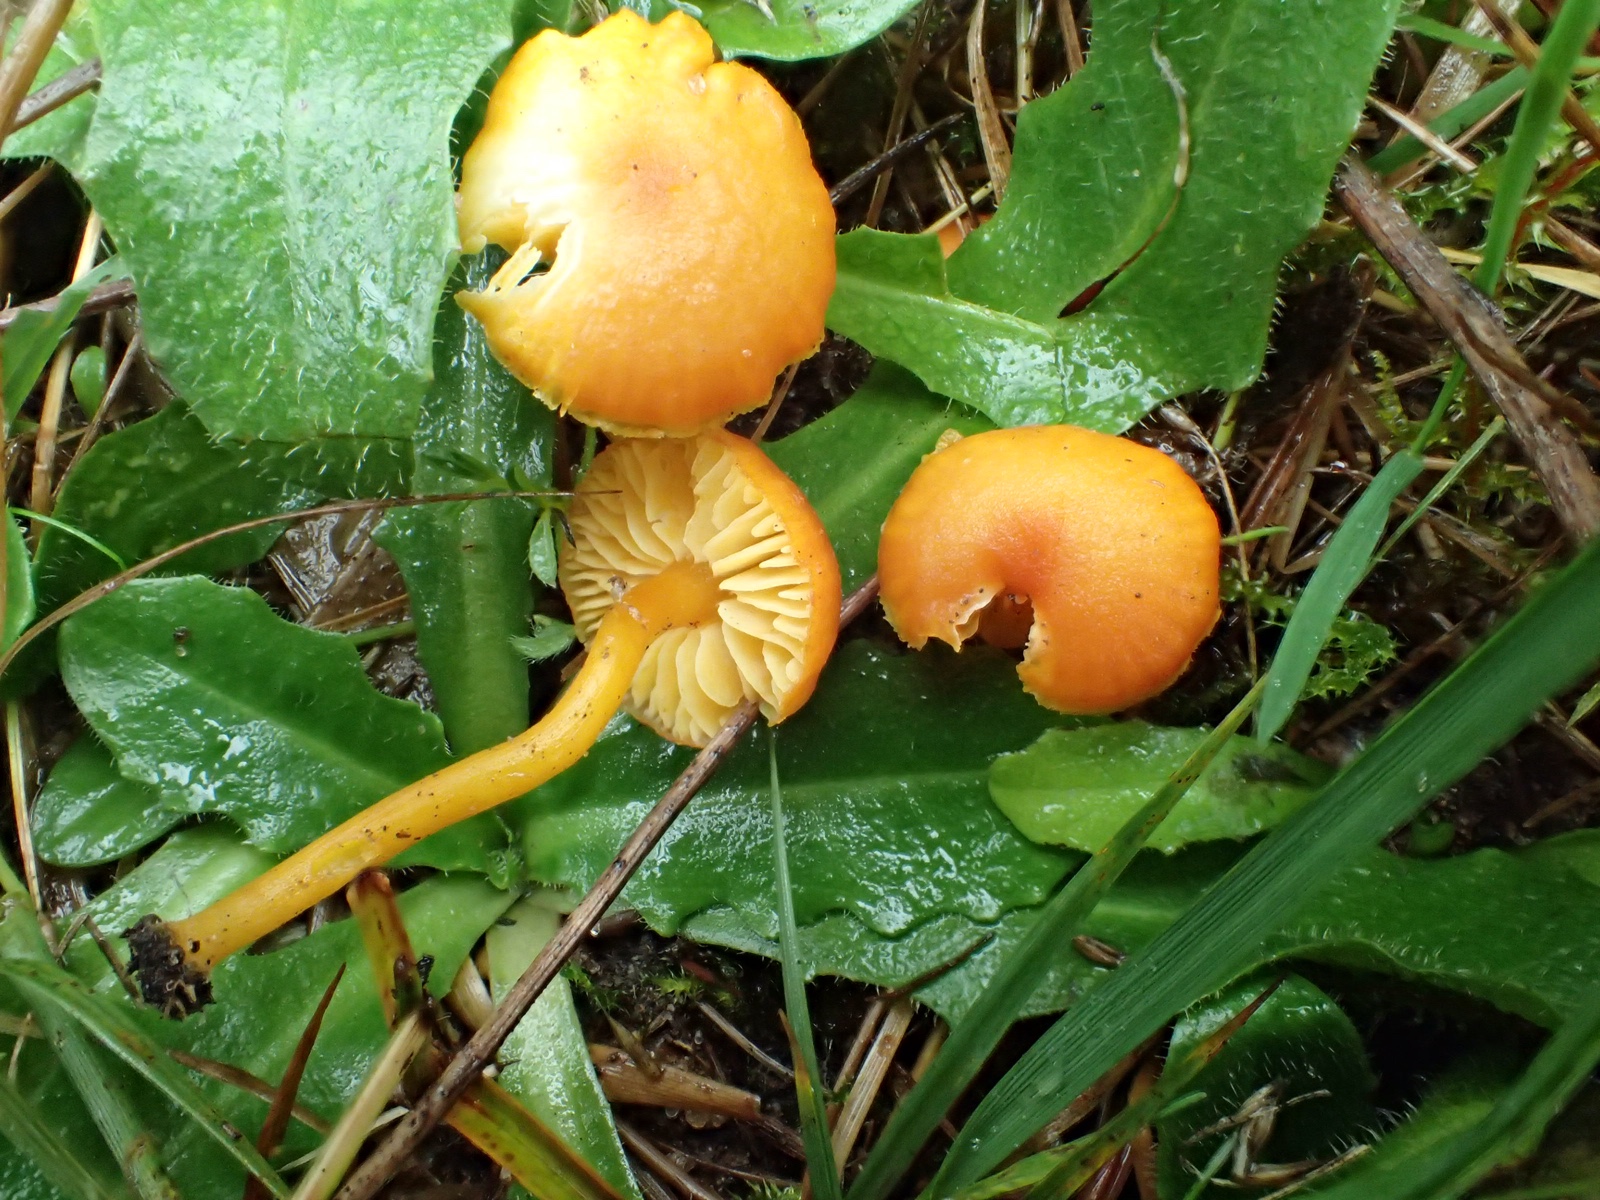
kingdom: Fungi
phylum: Basidiomycota
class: Agaricomycetes
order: Agaricales
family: Hygrophoraceae
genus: Hygrocybe
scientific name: Hygrocybe ceracea
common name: voksgul vokshat
